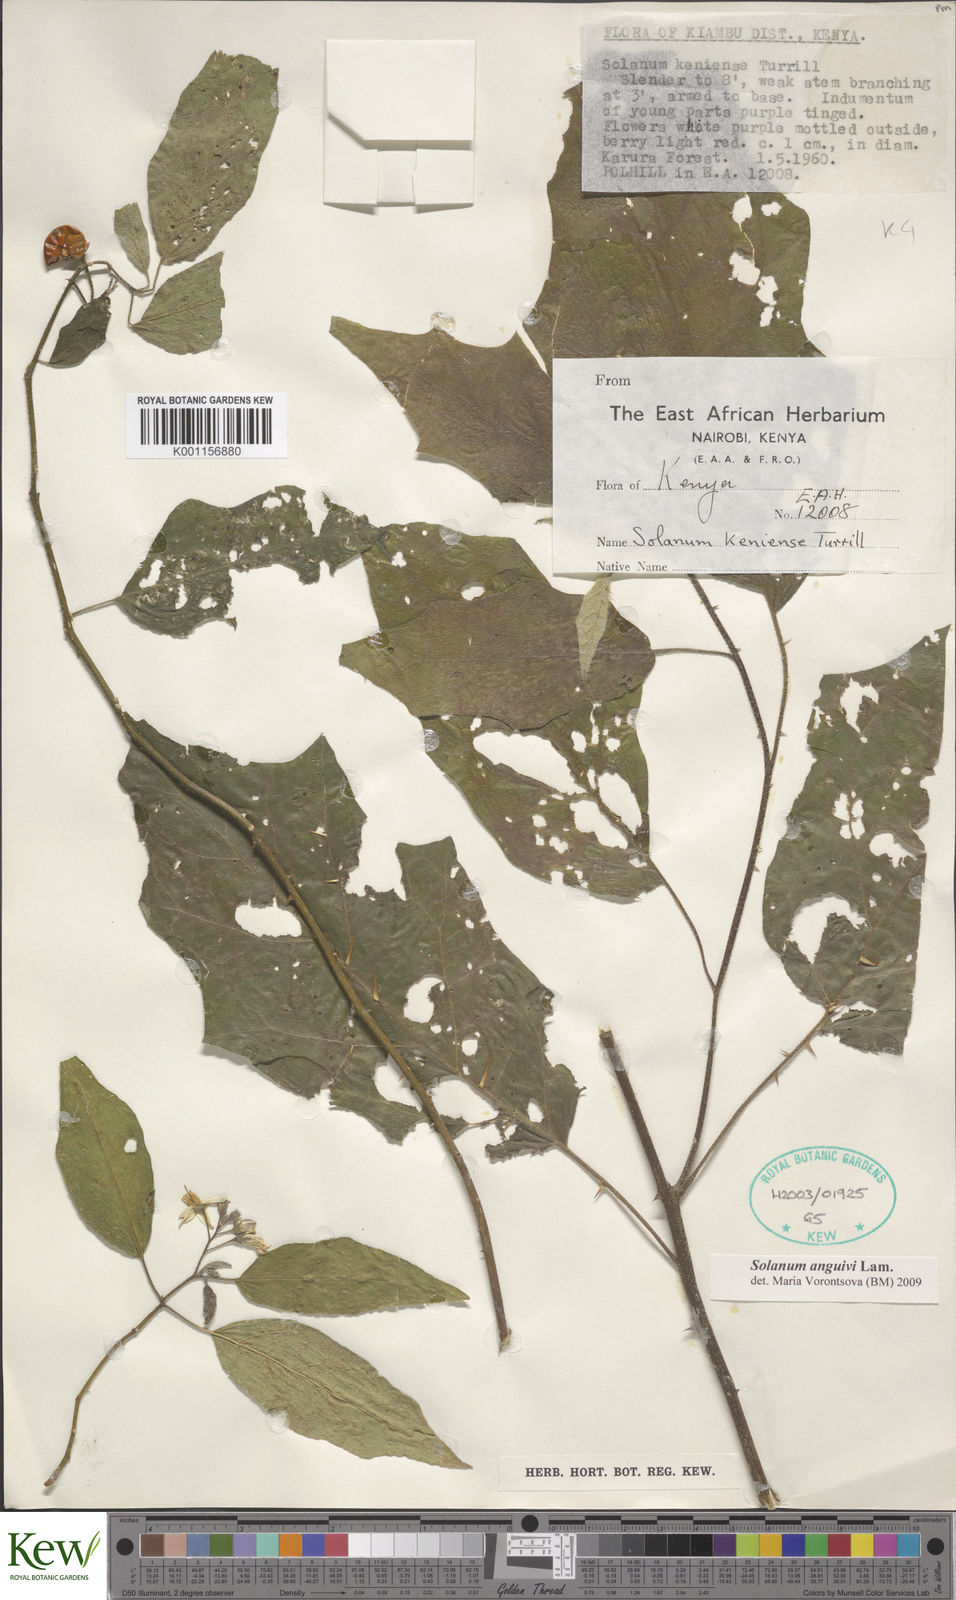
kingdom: Plantae
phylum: Tracheophyta
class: Magnoliopsida
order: Solanales
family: Solanaceae
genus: Solanum
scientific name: Solanum anguivi
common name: Forest bitterberry
